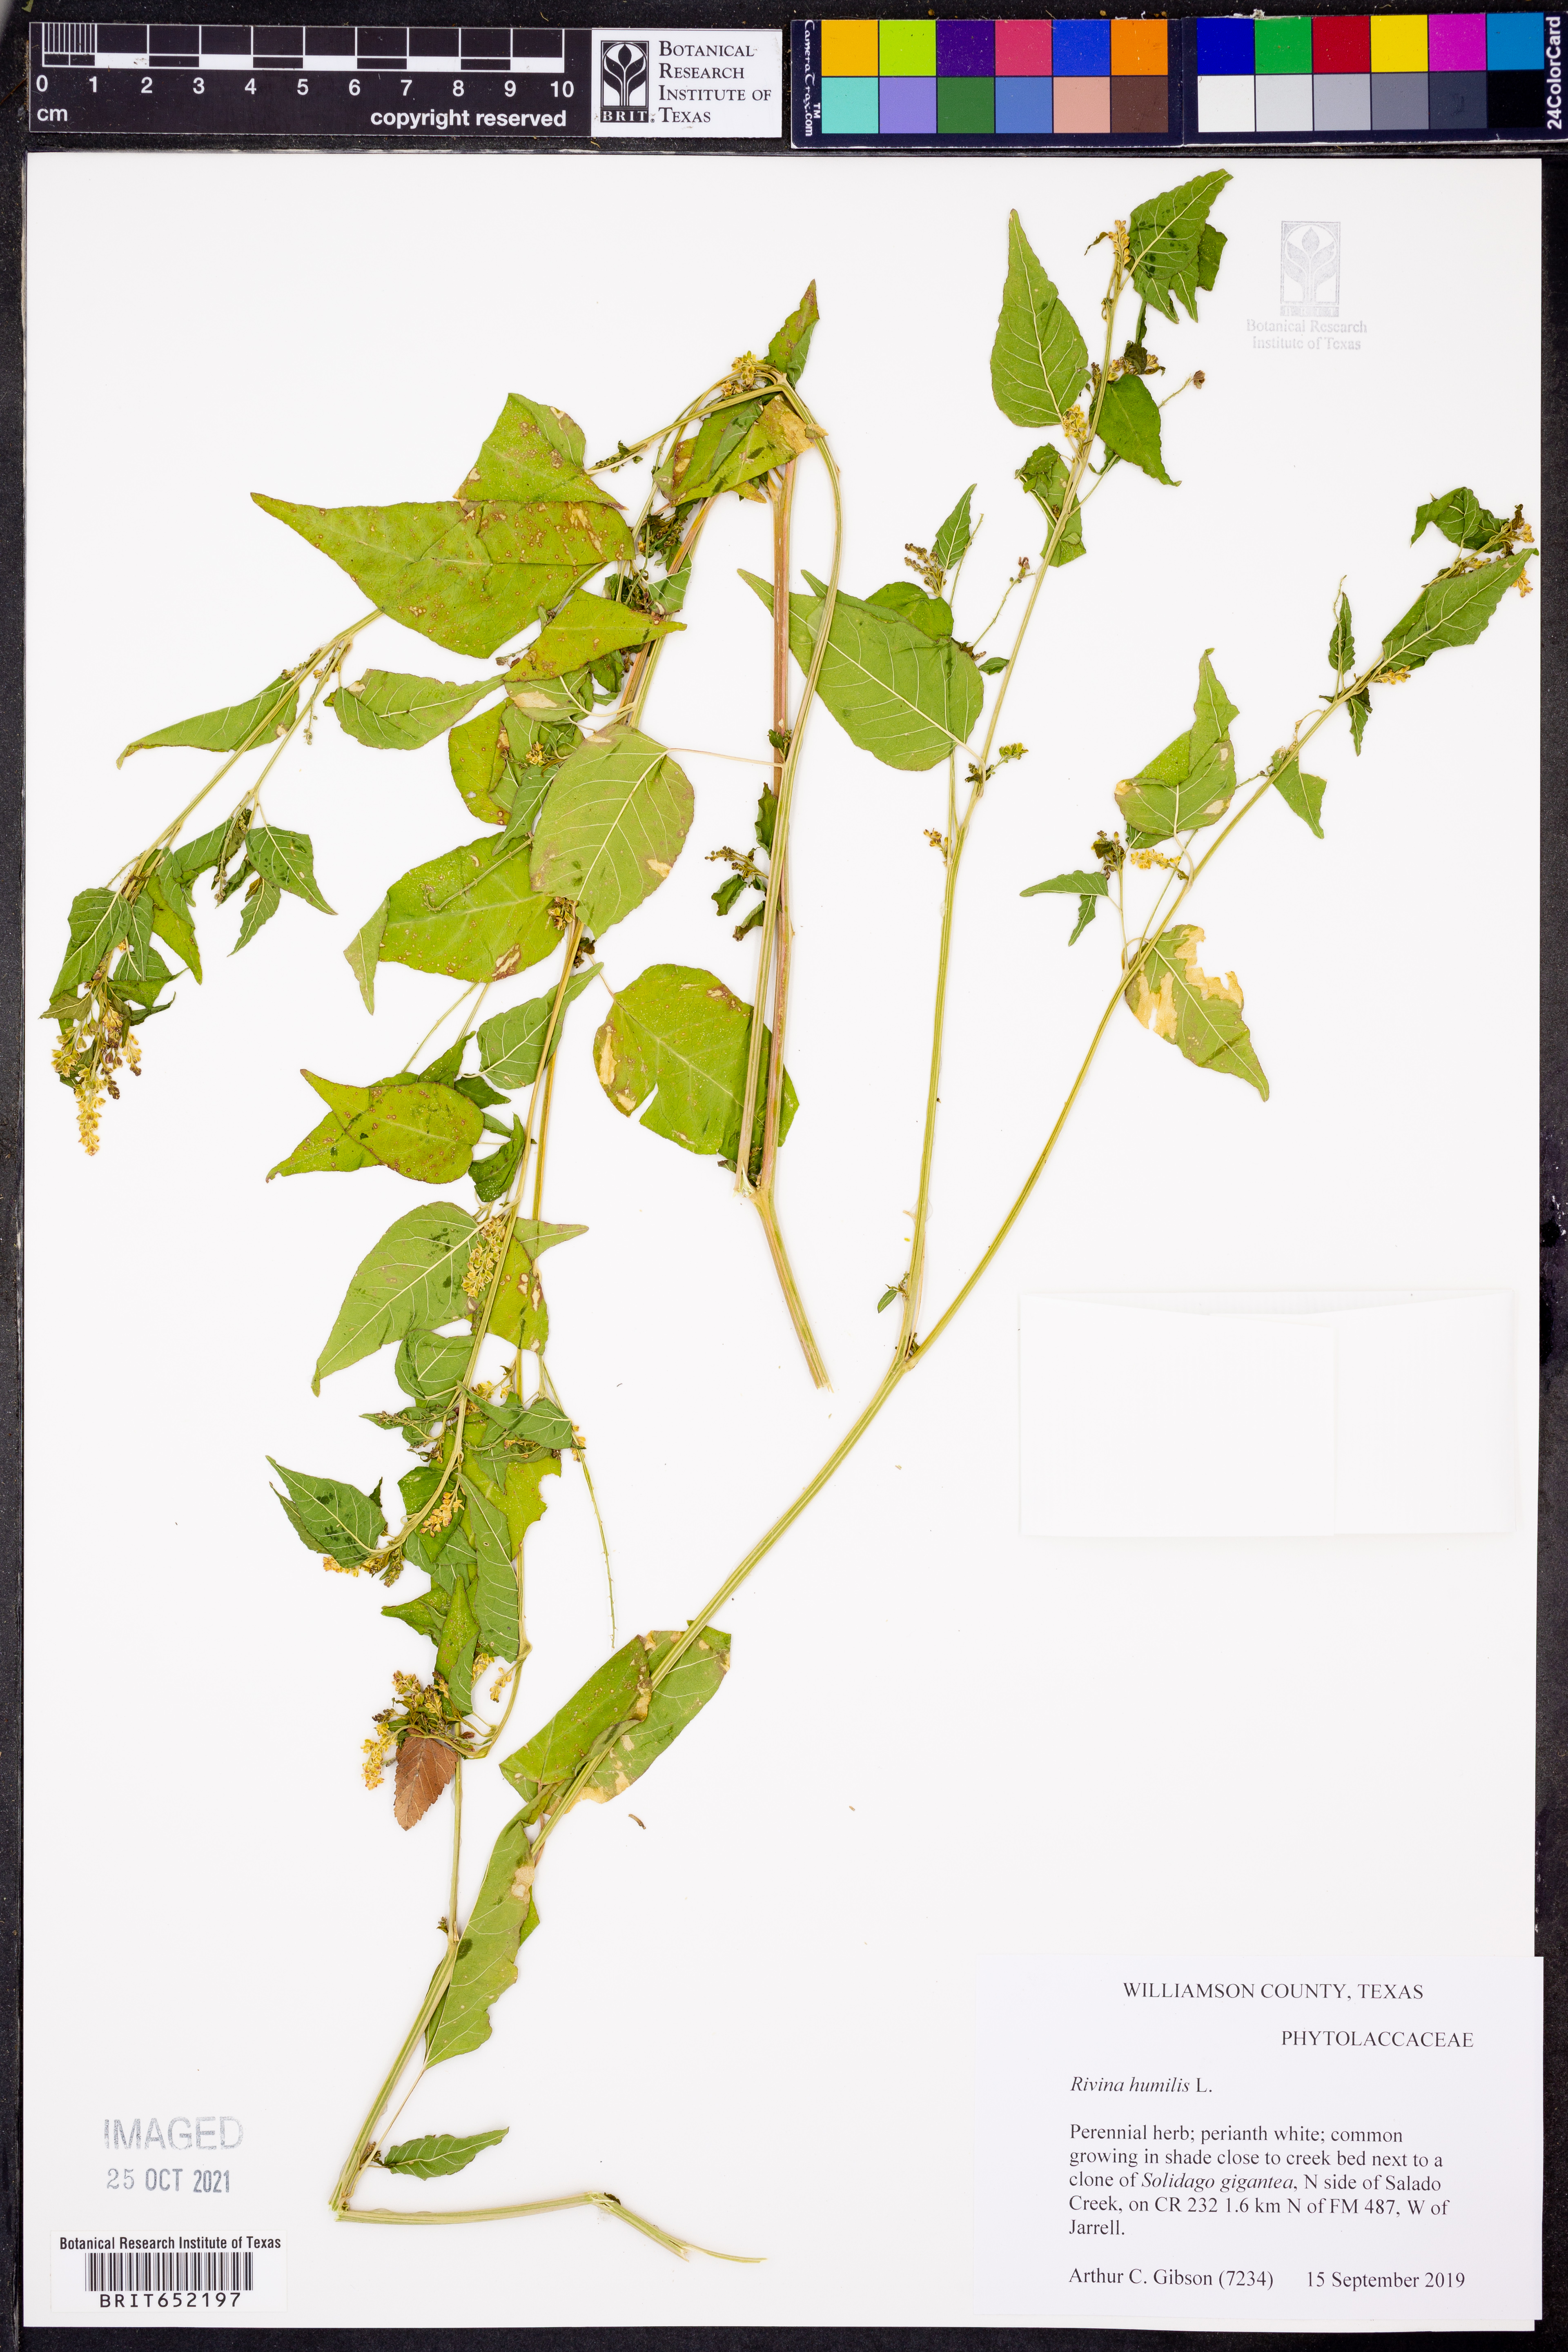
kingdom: Plantae
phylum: Tracheophyta
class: Magnoliopsida
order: Caryophyllales
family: Phytolaccaceae
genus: Rivina
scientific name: Rivina humilis
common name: Rougeplant
